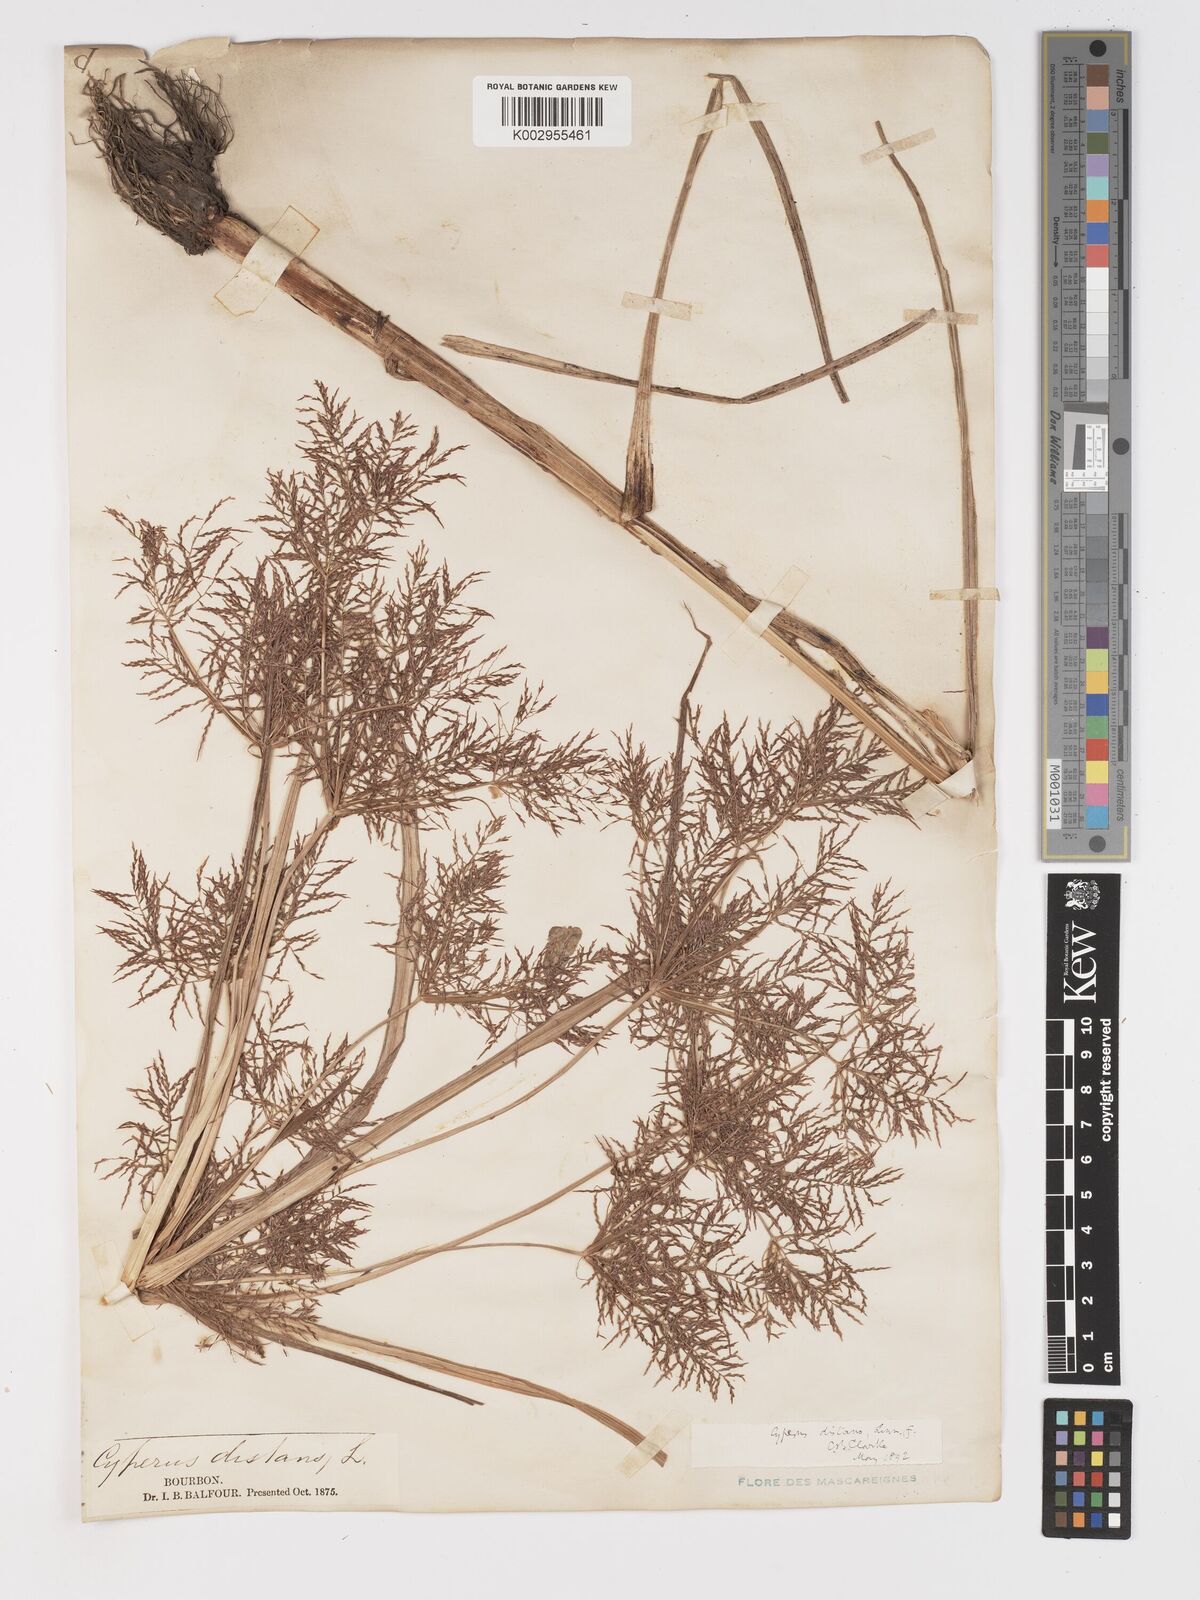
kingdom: Plantae
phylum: Tracheophyta
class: Liliopsida
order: Poales
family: Cyperaceae
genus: Cyperus
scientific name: Cyperus distans
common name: Slender cyperus
